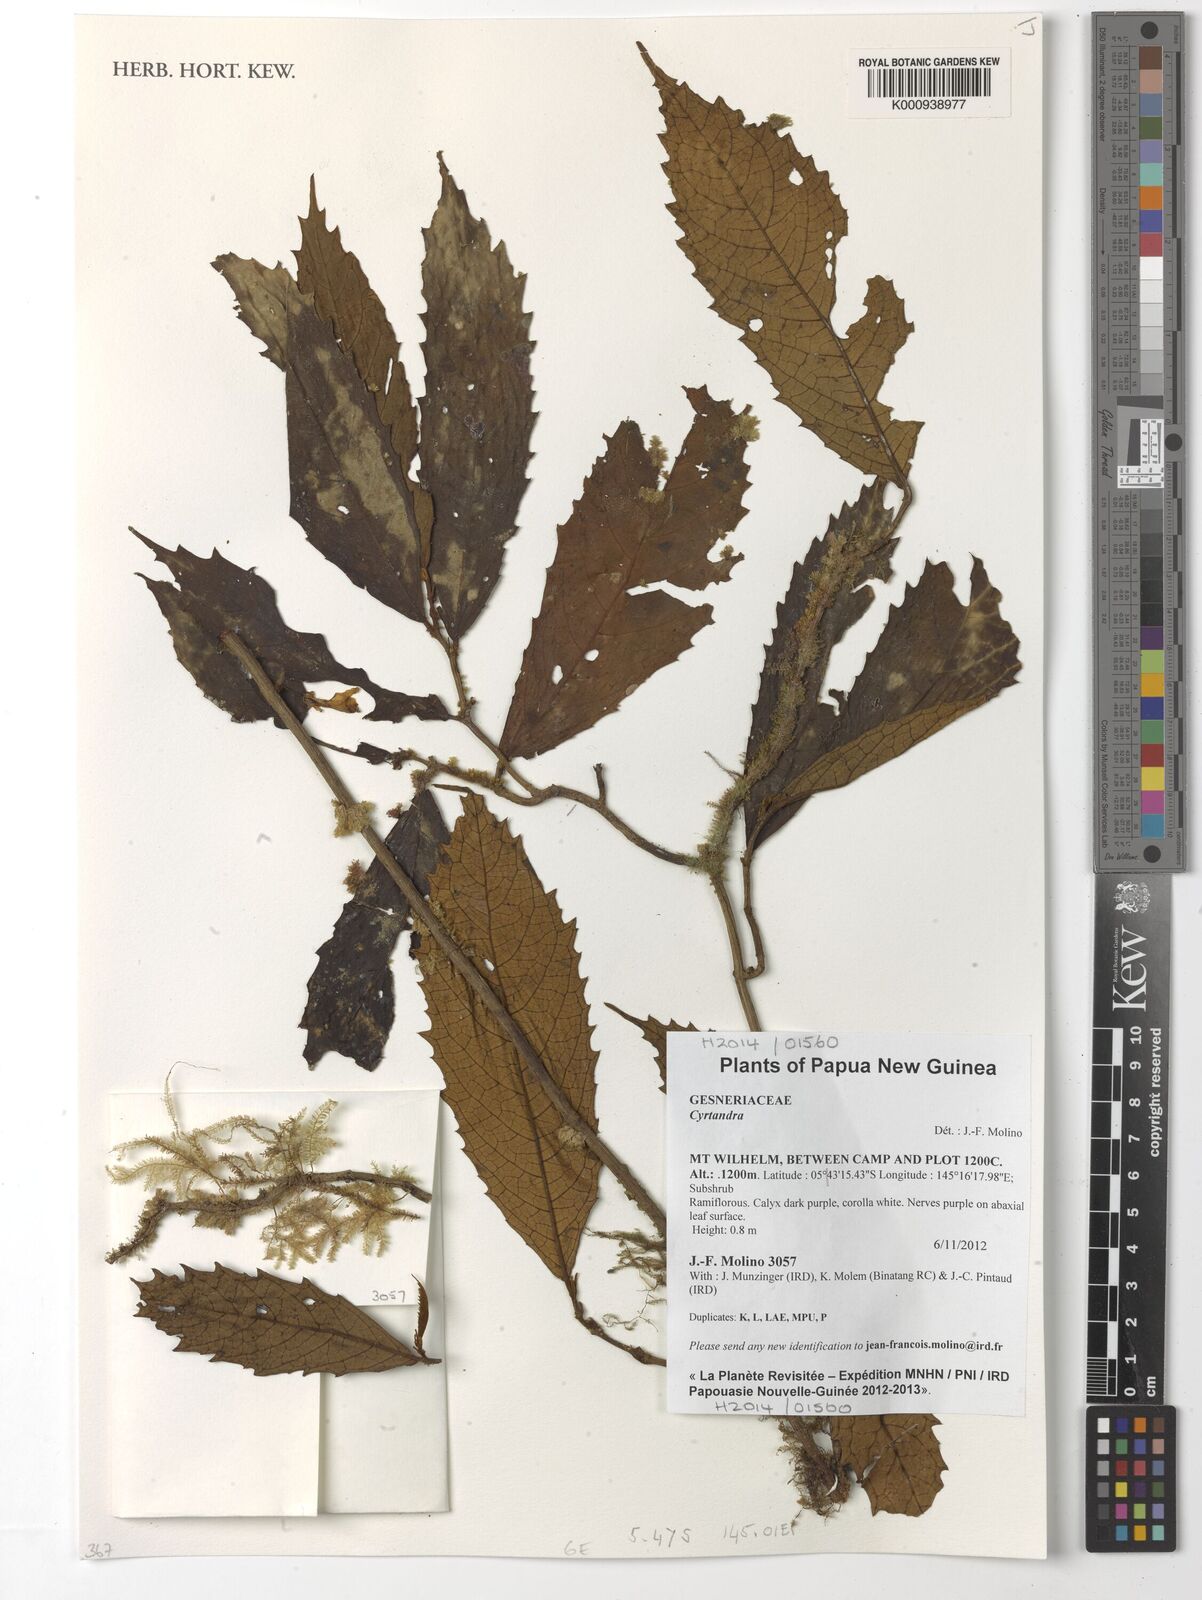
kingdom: Plantae
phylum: Tracheophyta
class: Magnoliopsida
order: Lamiales
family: Gesneriaceae
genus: Cyrtandra
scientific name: Cyrtandra
